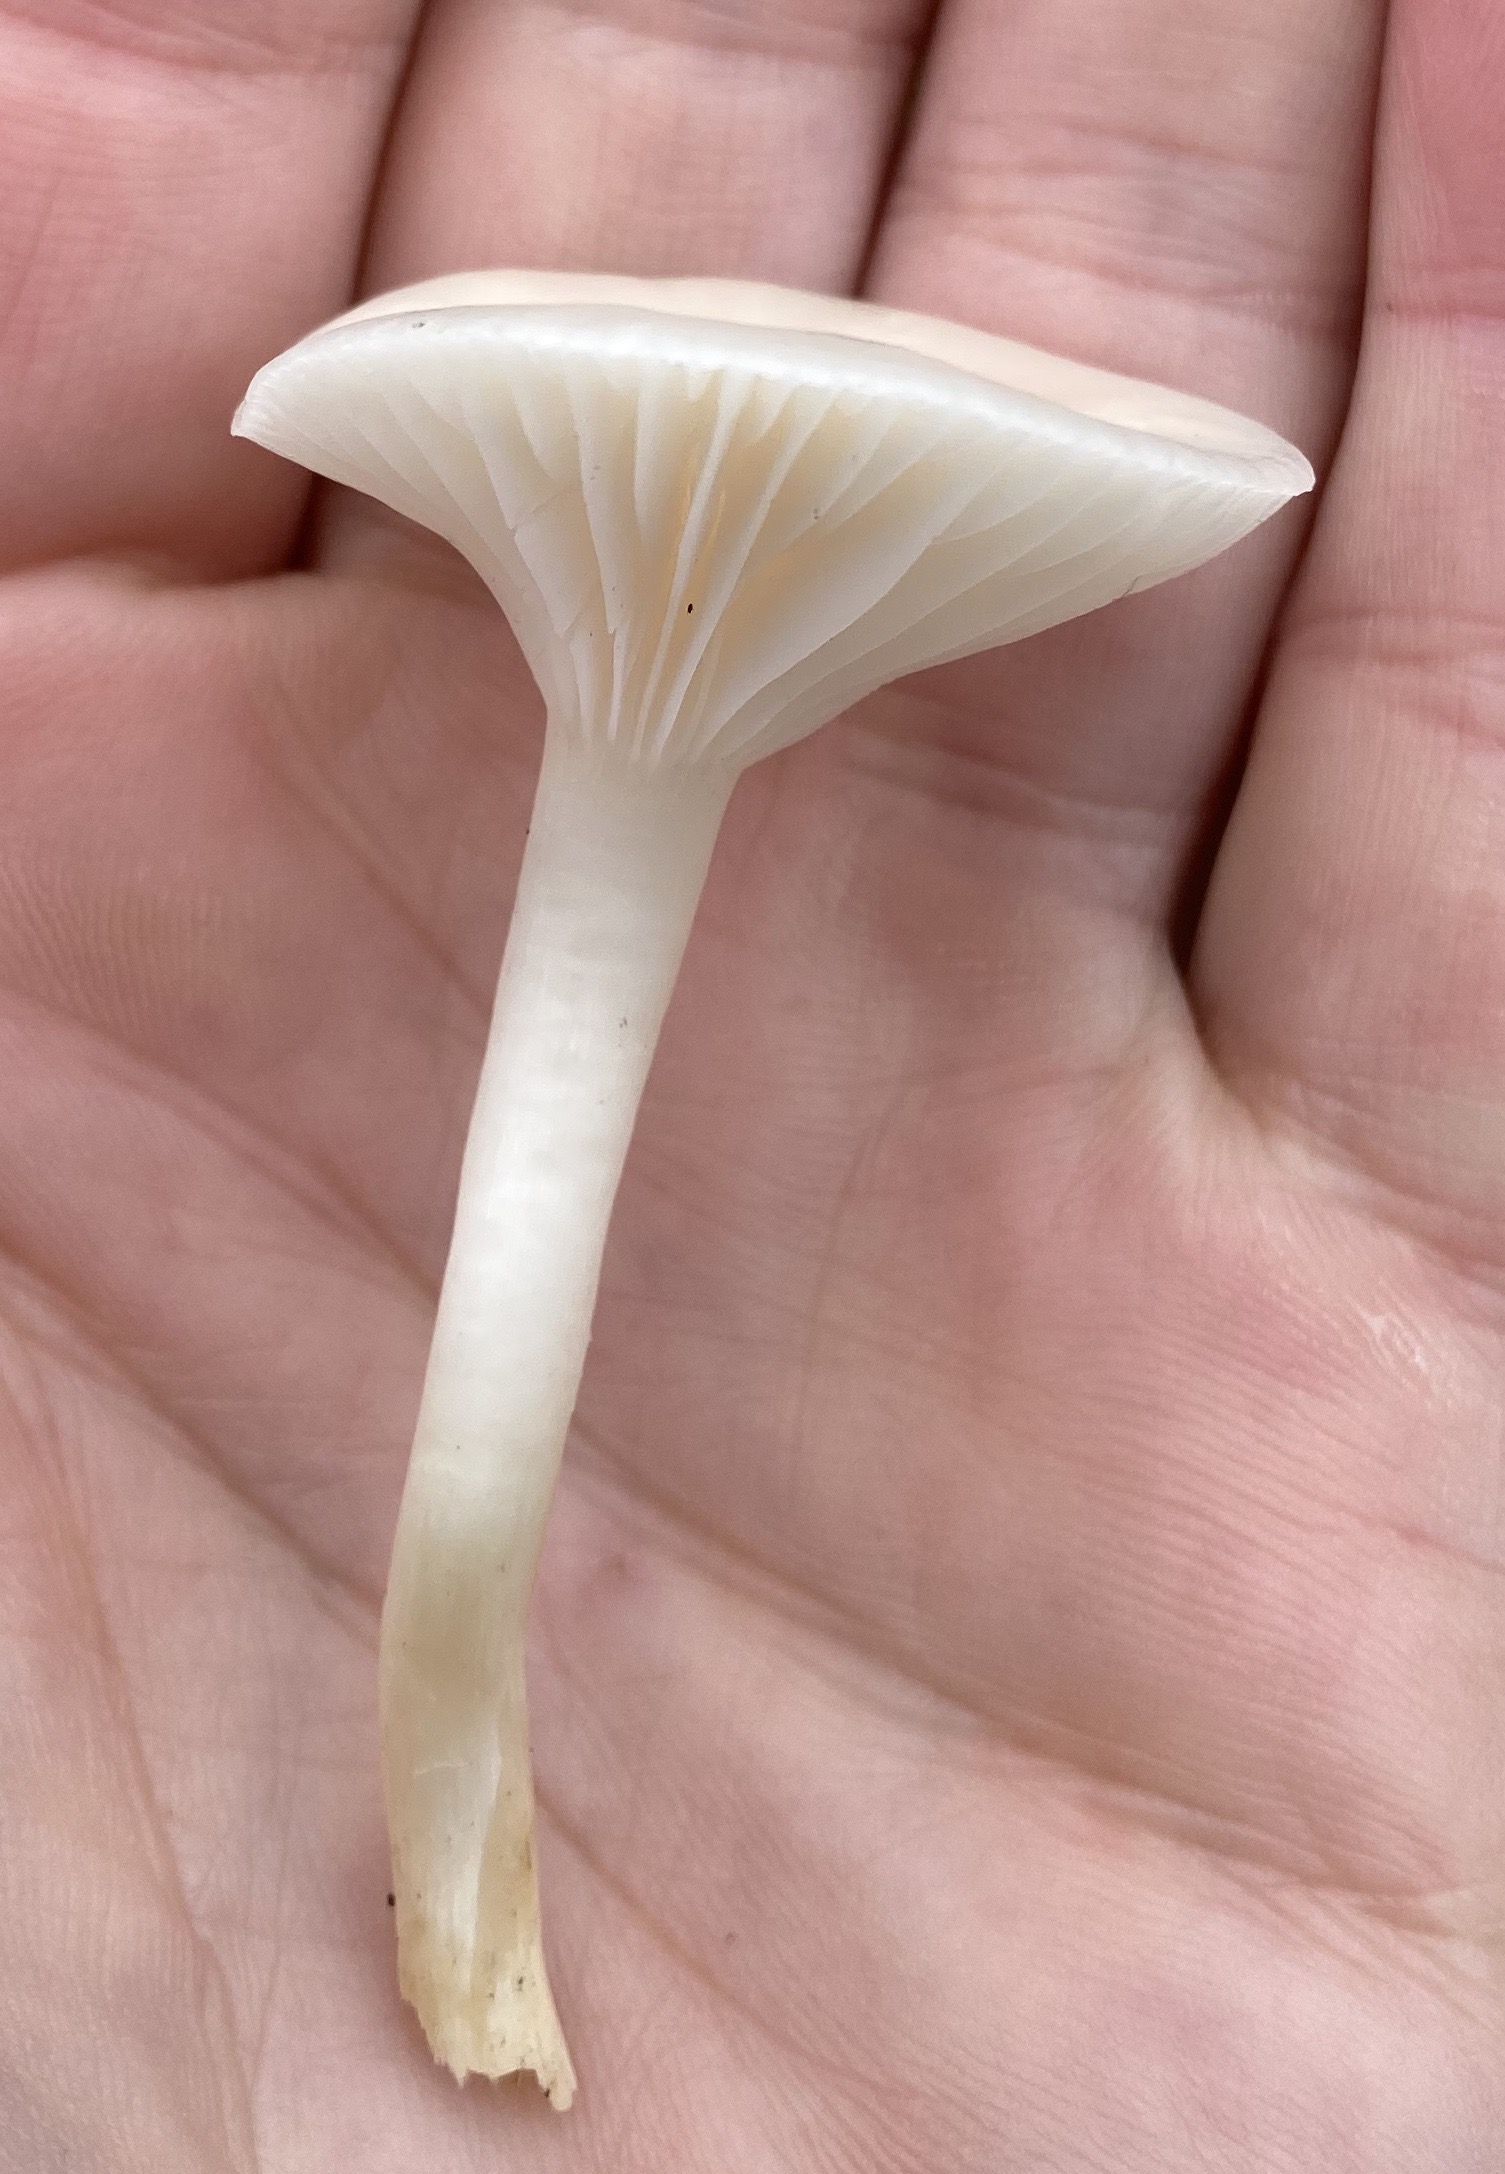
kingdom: Fungi
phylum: Basidiomycota
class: Agaricomycetes
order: Agaricales
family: Hygrophoraceae
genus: Cuphophyllus
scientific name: Cuphophyllus virgineus
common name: snehvid vokshat
